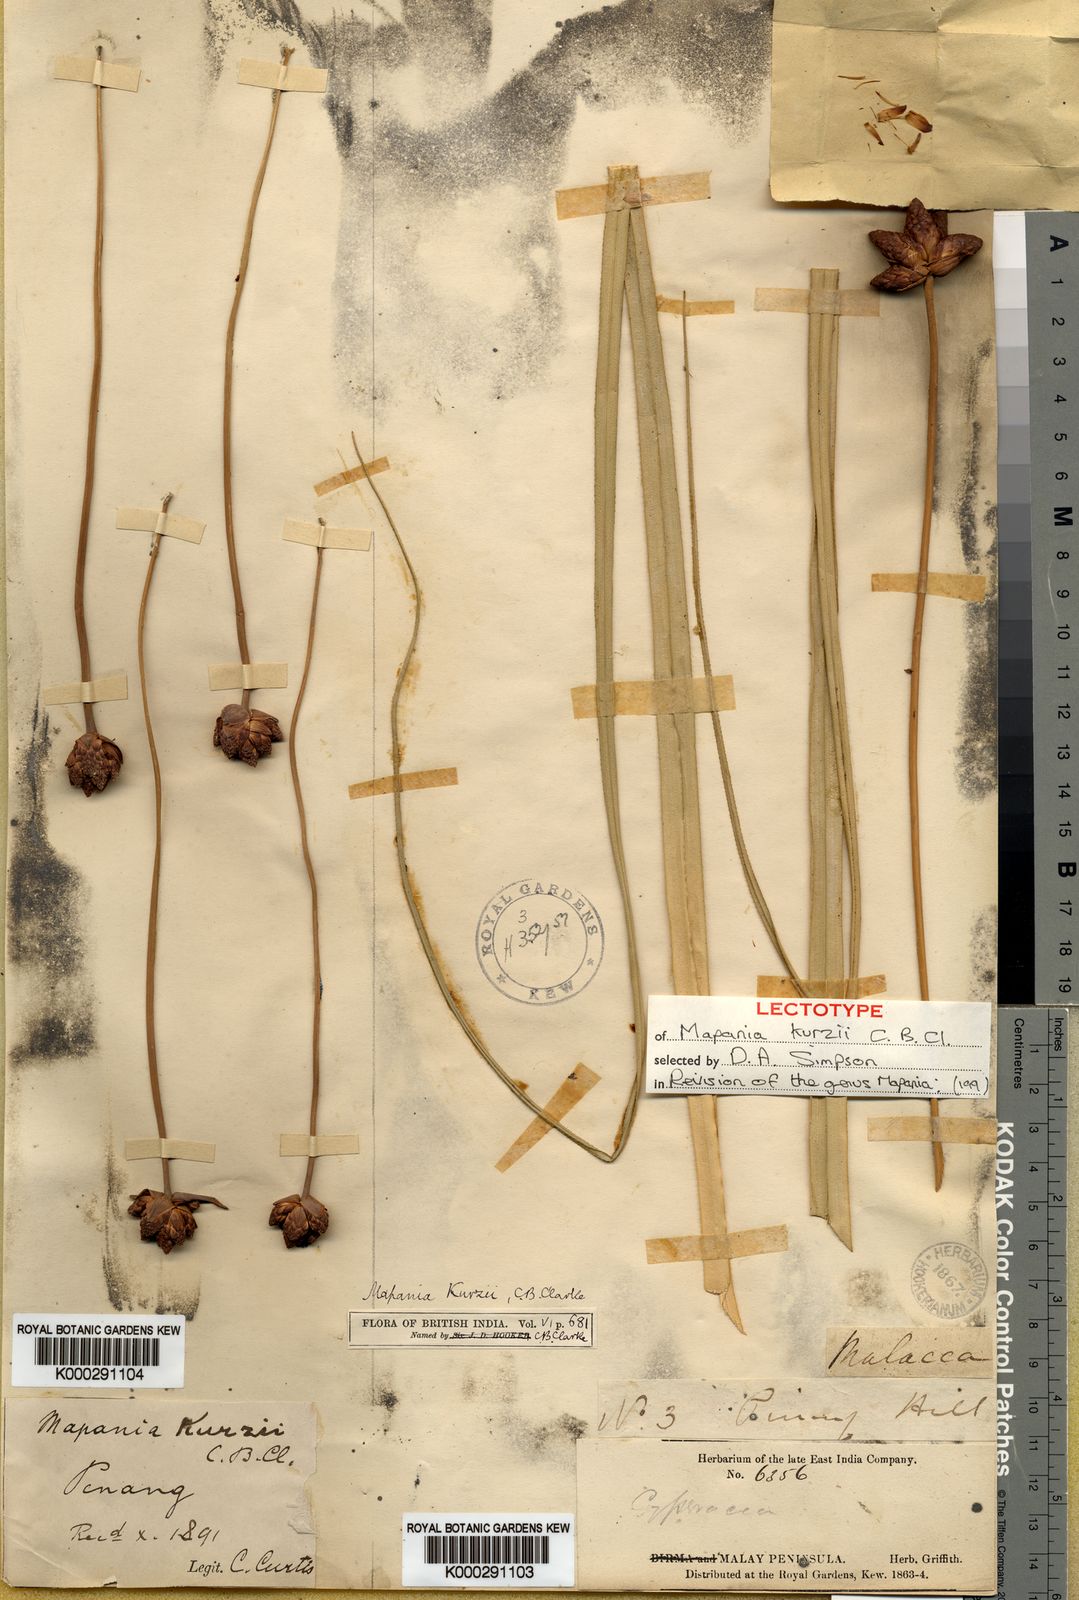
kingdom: Plantae
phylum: Tracheophyta
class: Liliopsida
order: Poales
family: Cyperaceae
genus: Mapania
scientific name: Mapania kurzii
